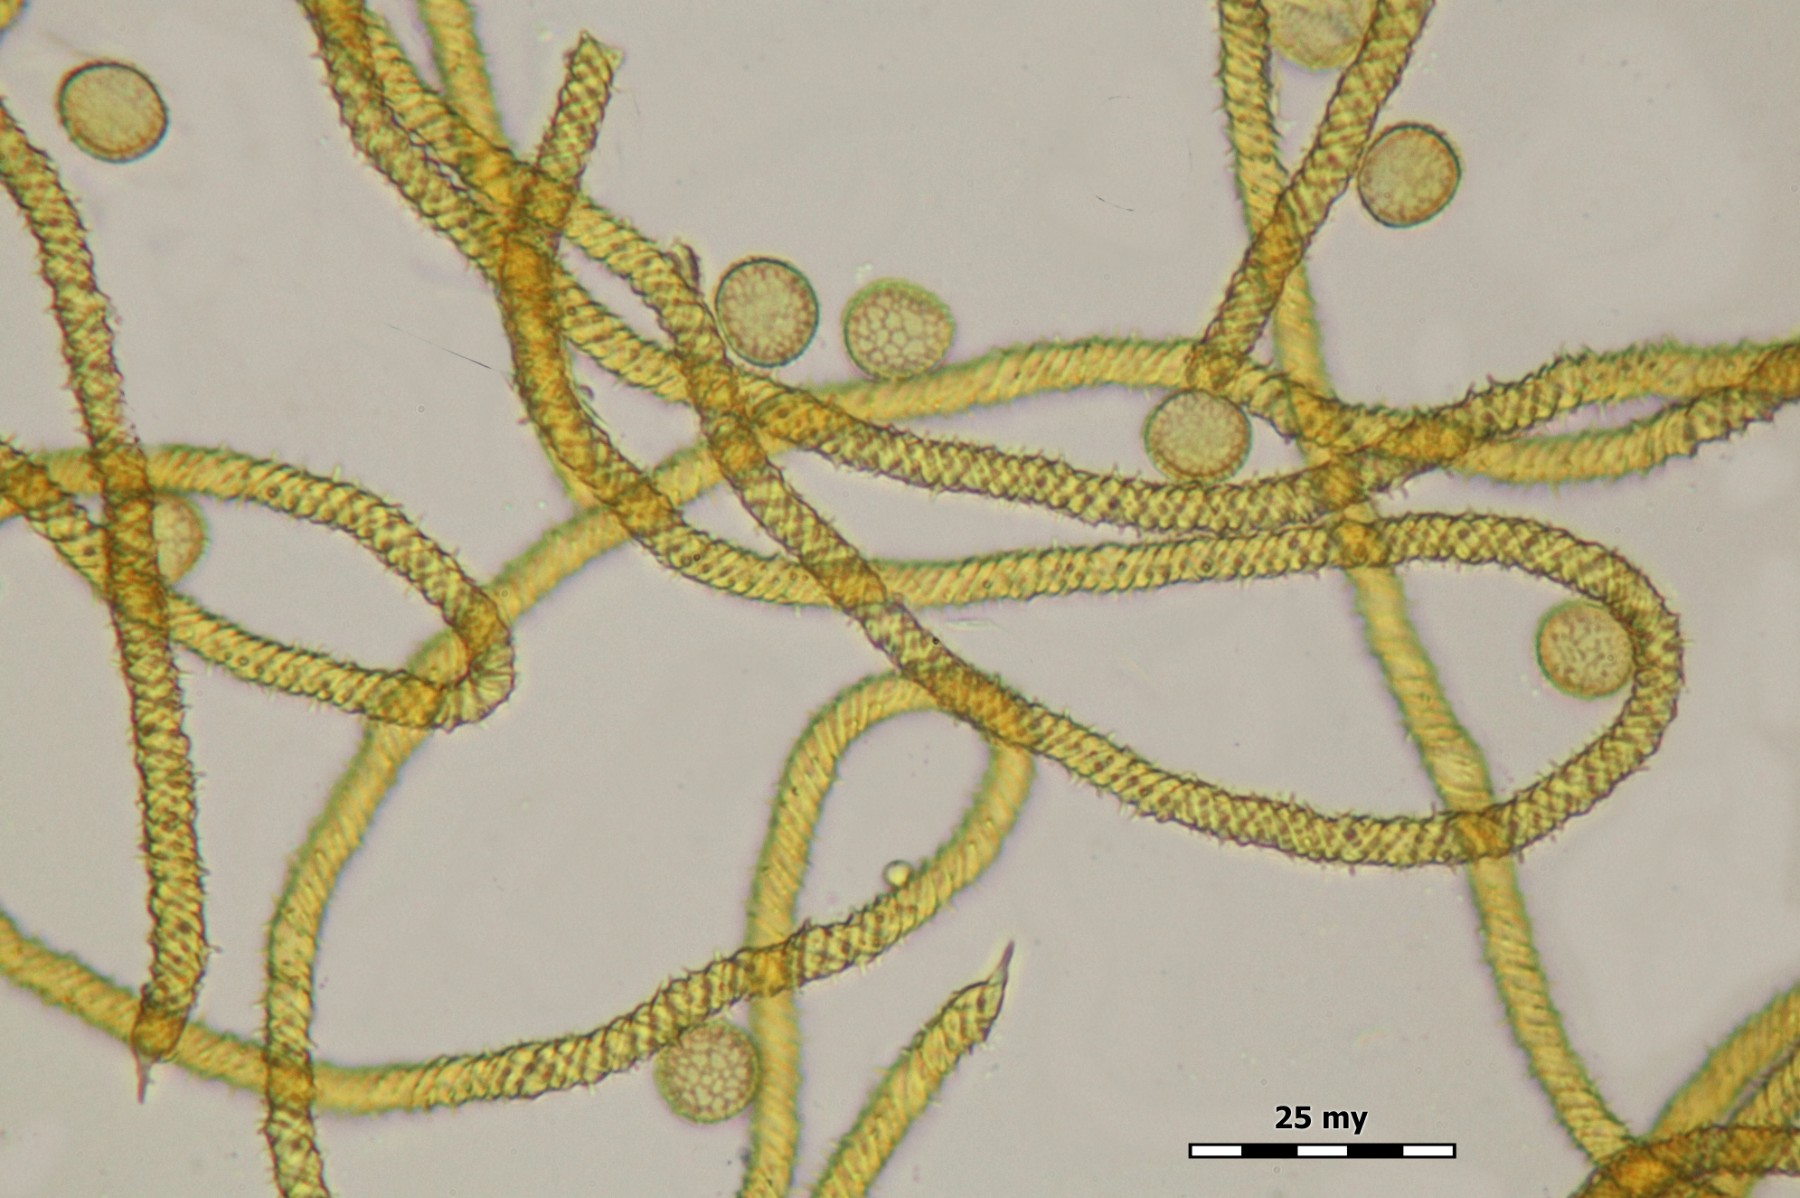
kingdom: Protozoa
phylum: Mycetozoa
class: Myxomycetes
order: Trichiales
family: Trichiaceae
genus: Trichia
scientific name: Trichia scabra
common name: tæppe-hårbold
